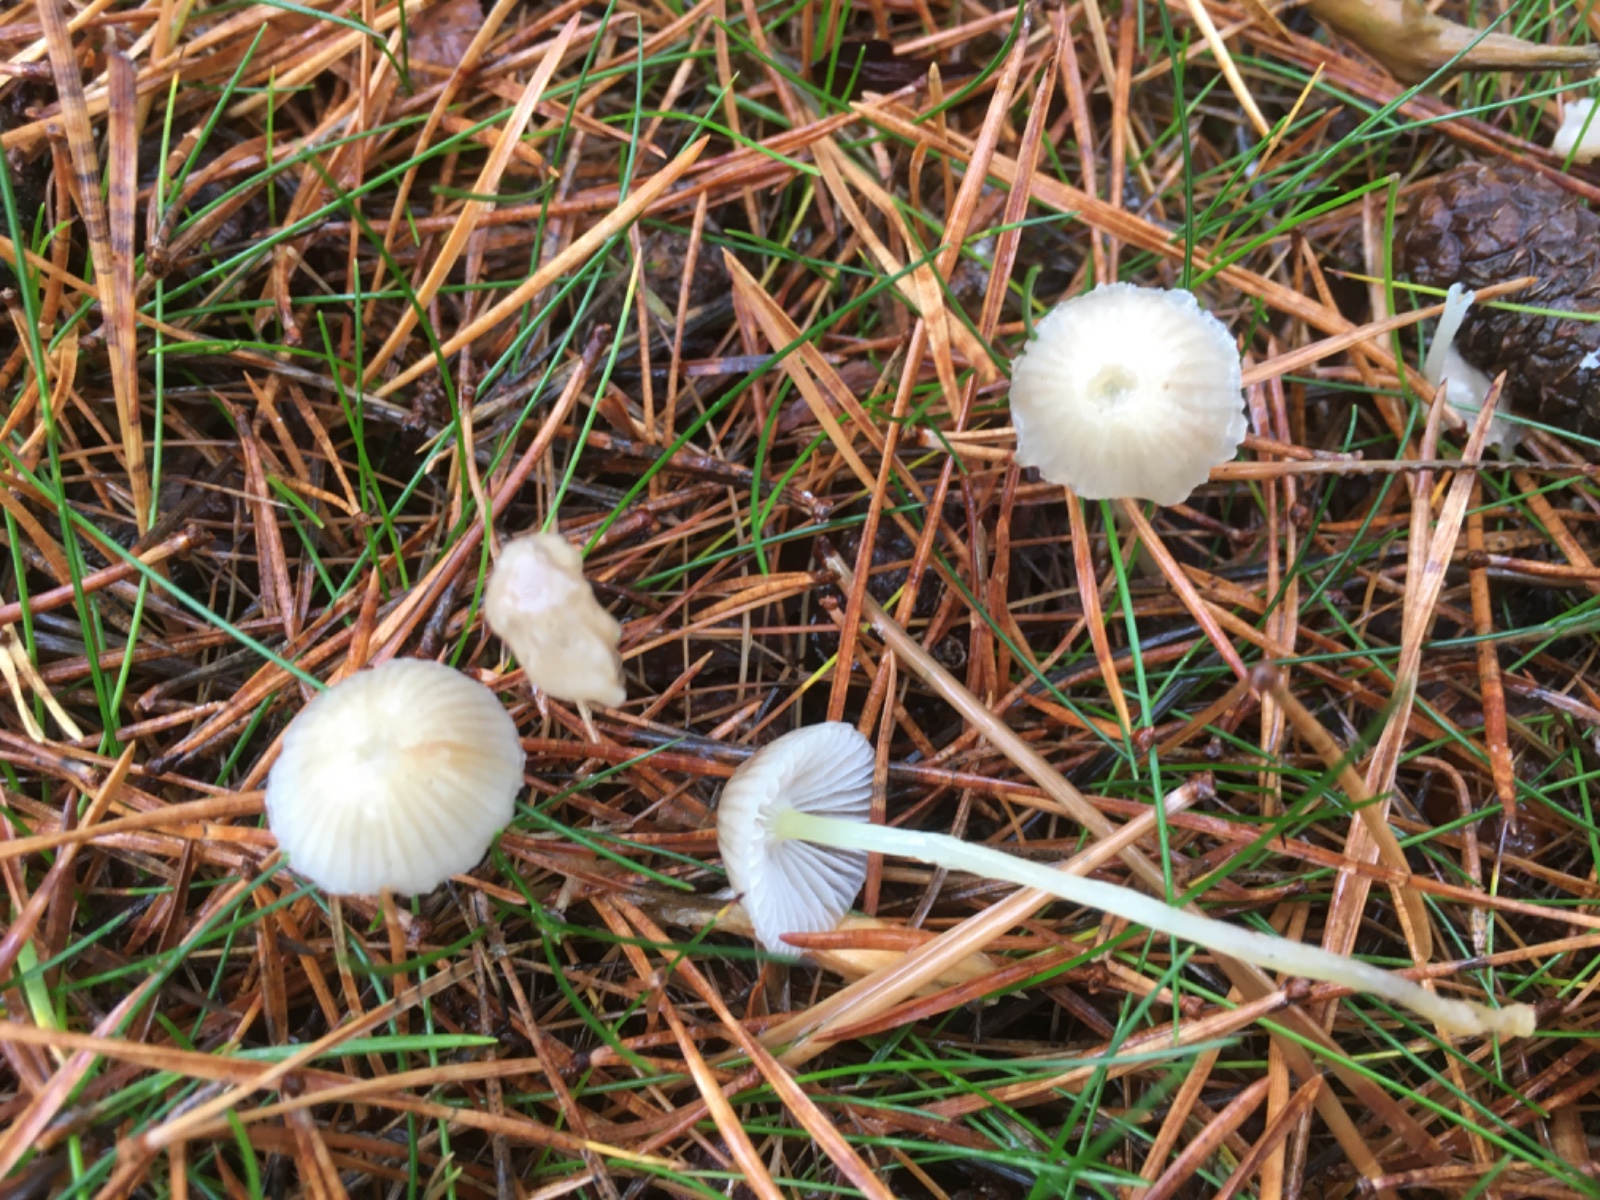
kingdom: Fungi
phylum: Basidiomycota
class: Agaricomycetes
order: Agaricales
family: Mycenaceae
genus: Mycena
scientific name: Mycena epipterygia
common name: gulstokket huesvamp
